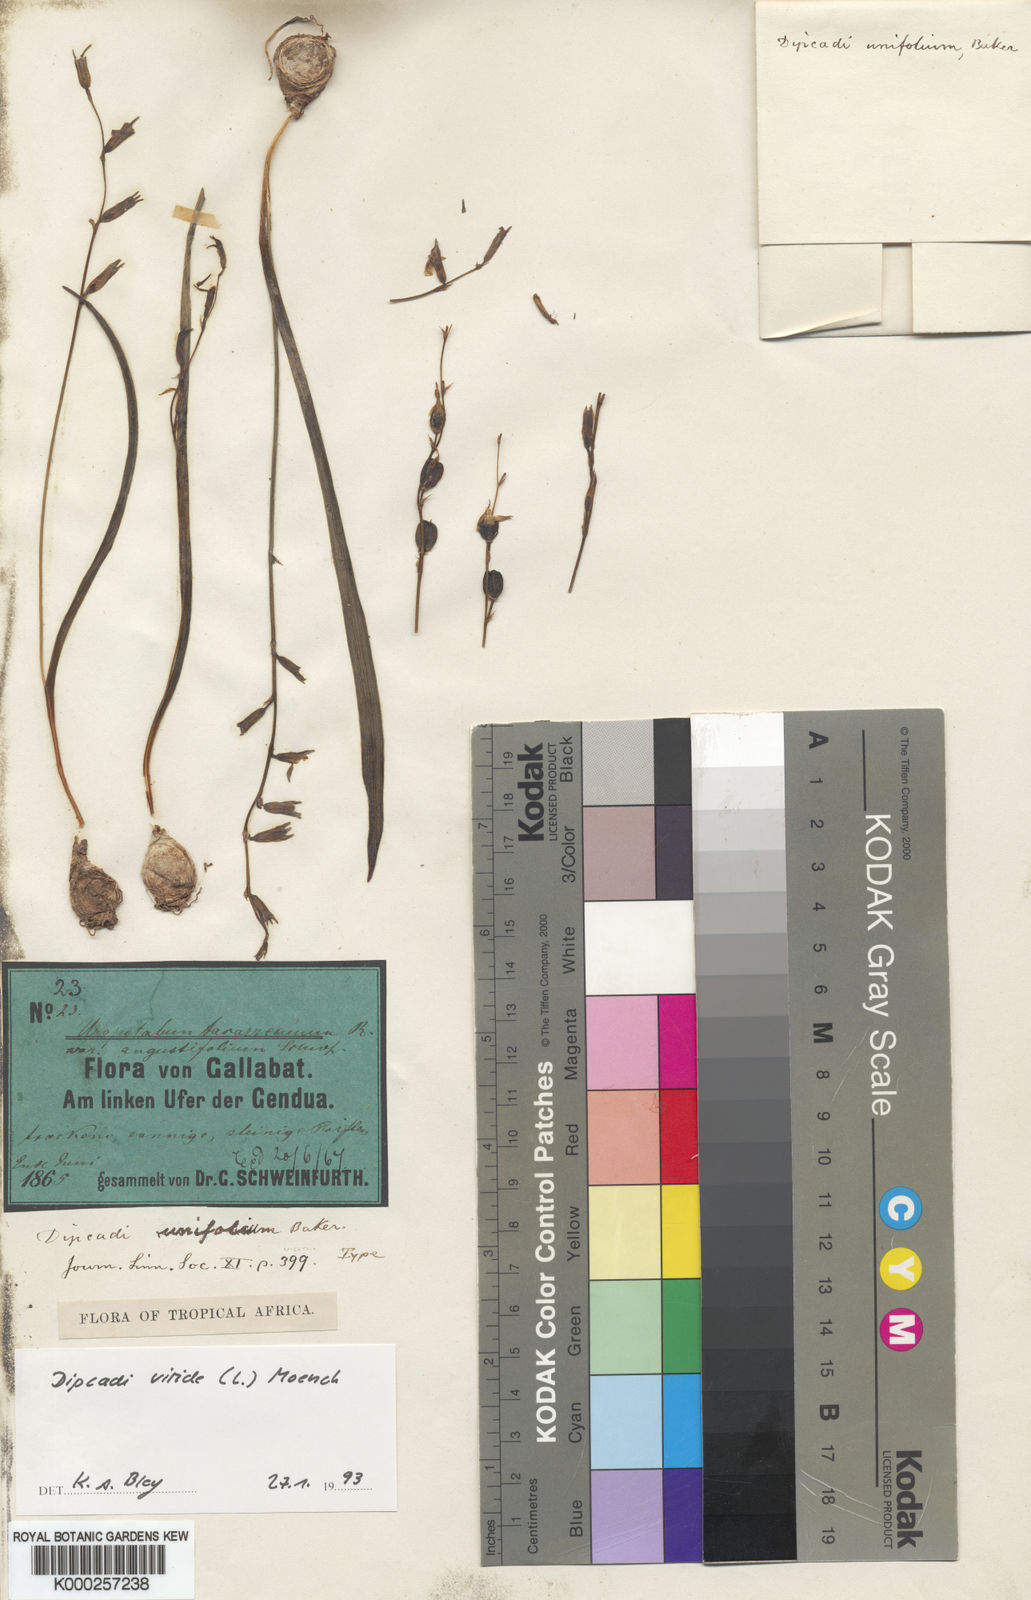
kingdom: Plantae
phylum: Tracheophyta
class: Liliopsida
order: Asparagales
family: Asparagaceae
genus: Dipcadi
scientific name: Dipcadi viride
